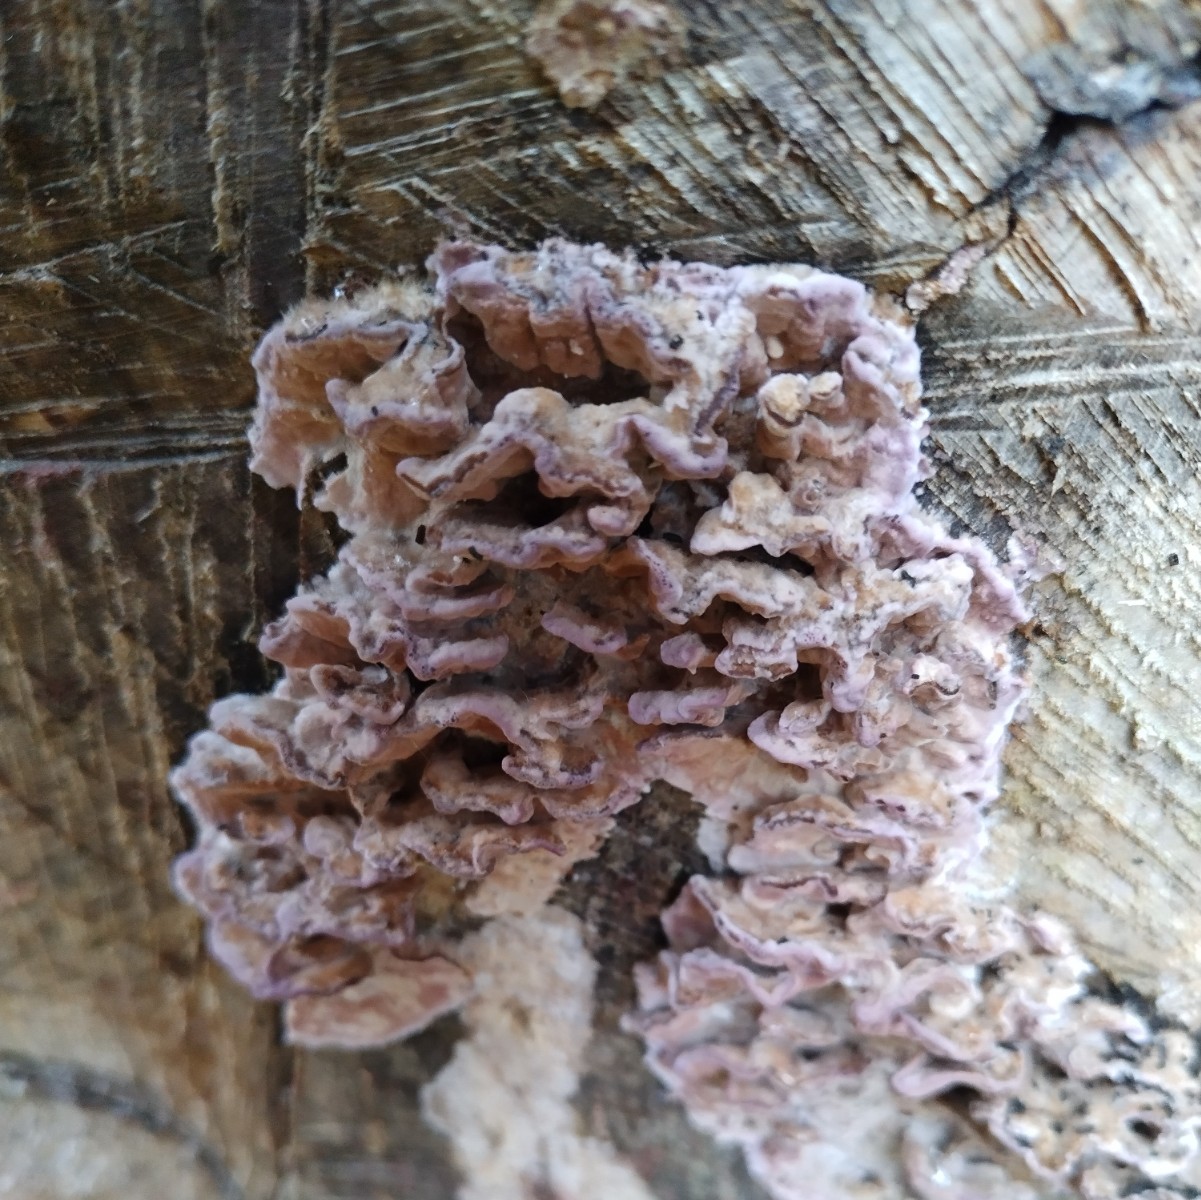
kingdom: Fungi
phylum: Basidiomycota
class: Agaricomycetes
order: Agaricales
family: Cyphellaceae
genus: Chondrostereum
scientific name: Chondrostereum purpureum
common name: purpurlædersvamp
